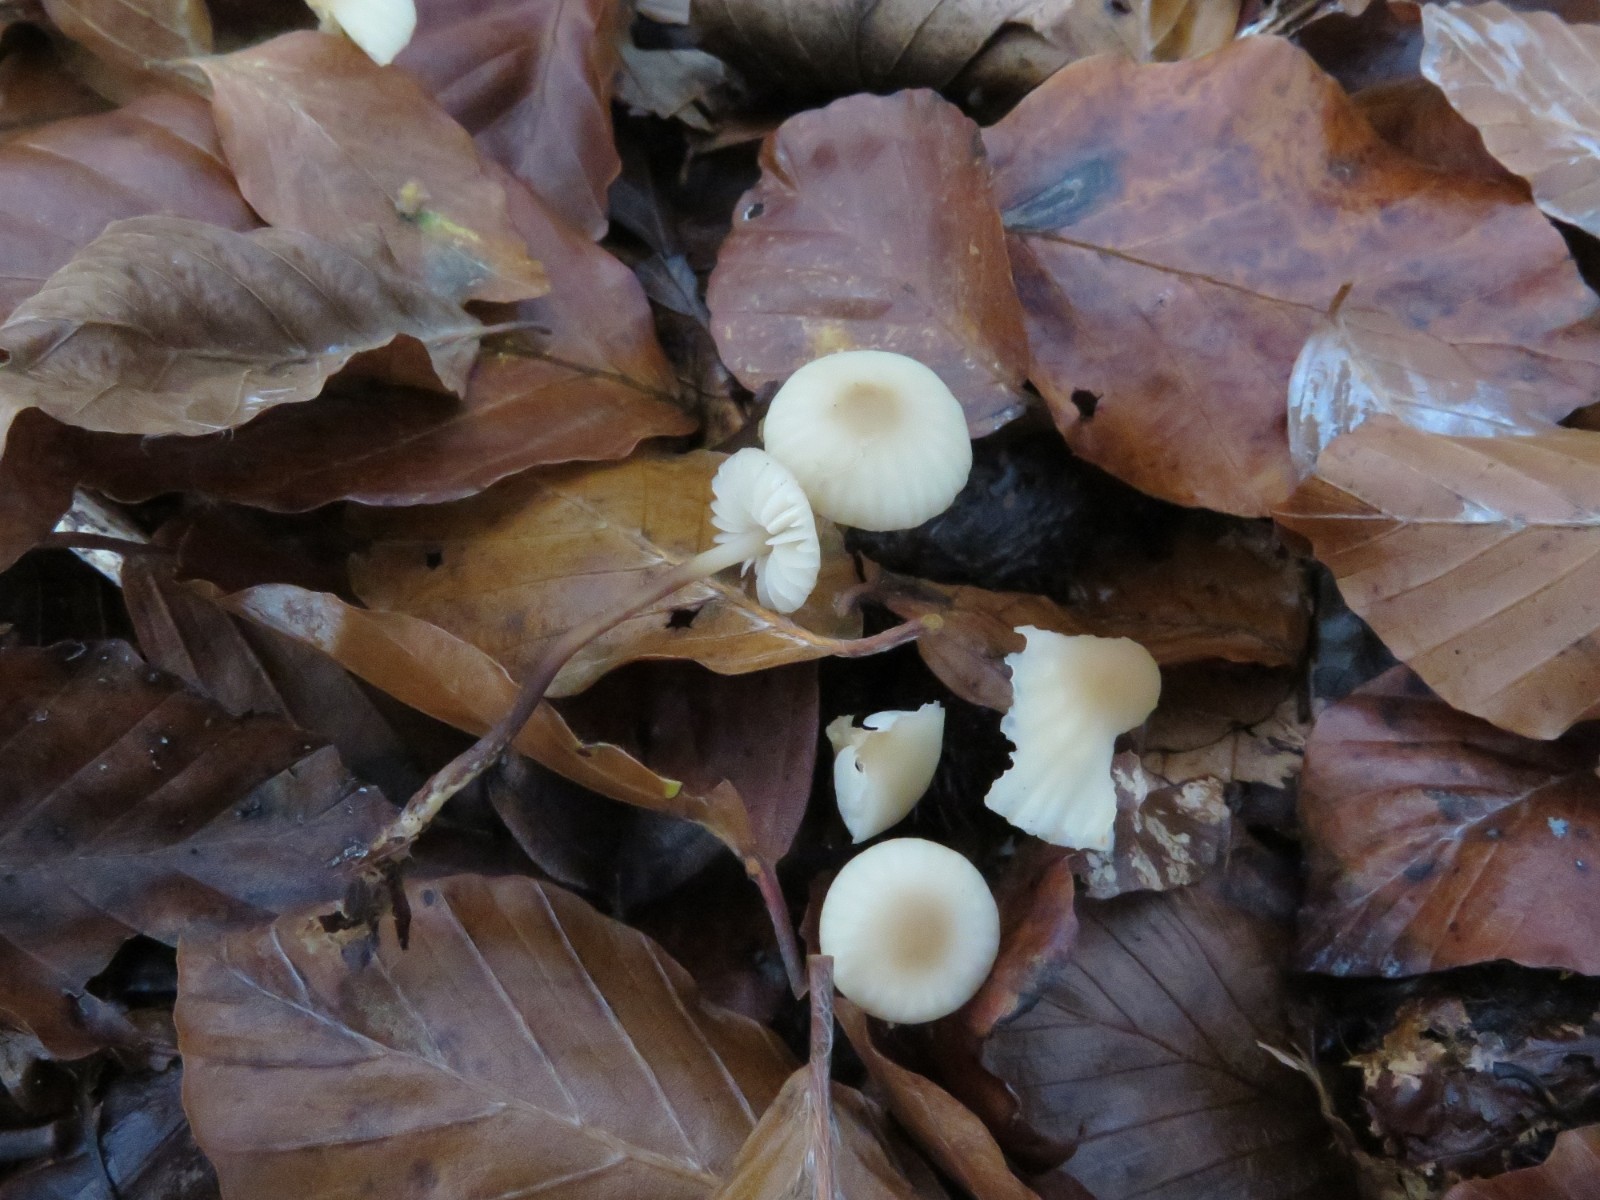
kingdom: Fungi
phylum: Basidiomycota
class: Agaricomycetes
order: Agaricales
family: Marasmiaceae
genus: Marasmius
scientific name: Marasmius torquescens
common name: filtfodet bruskhat
